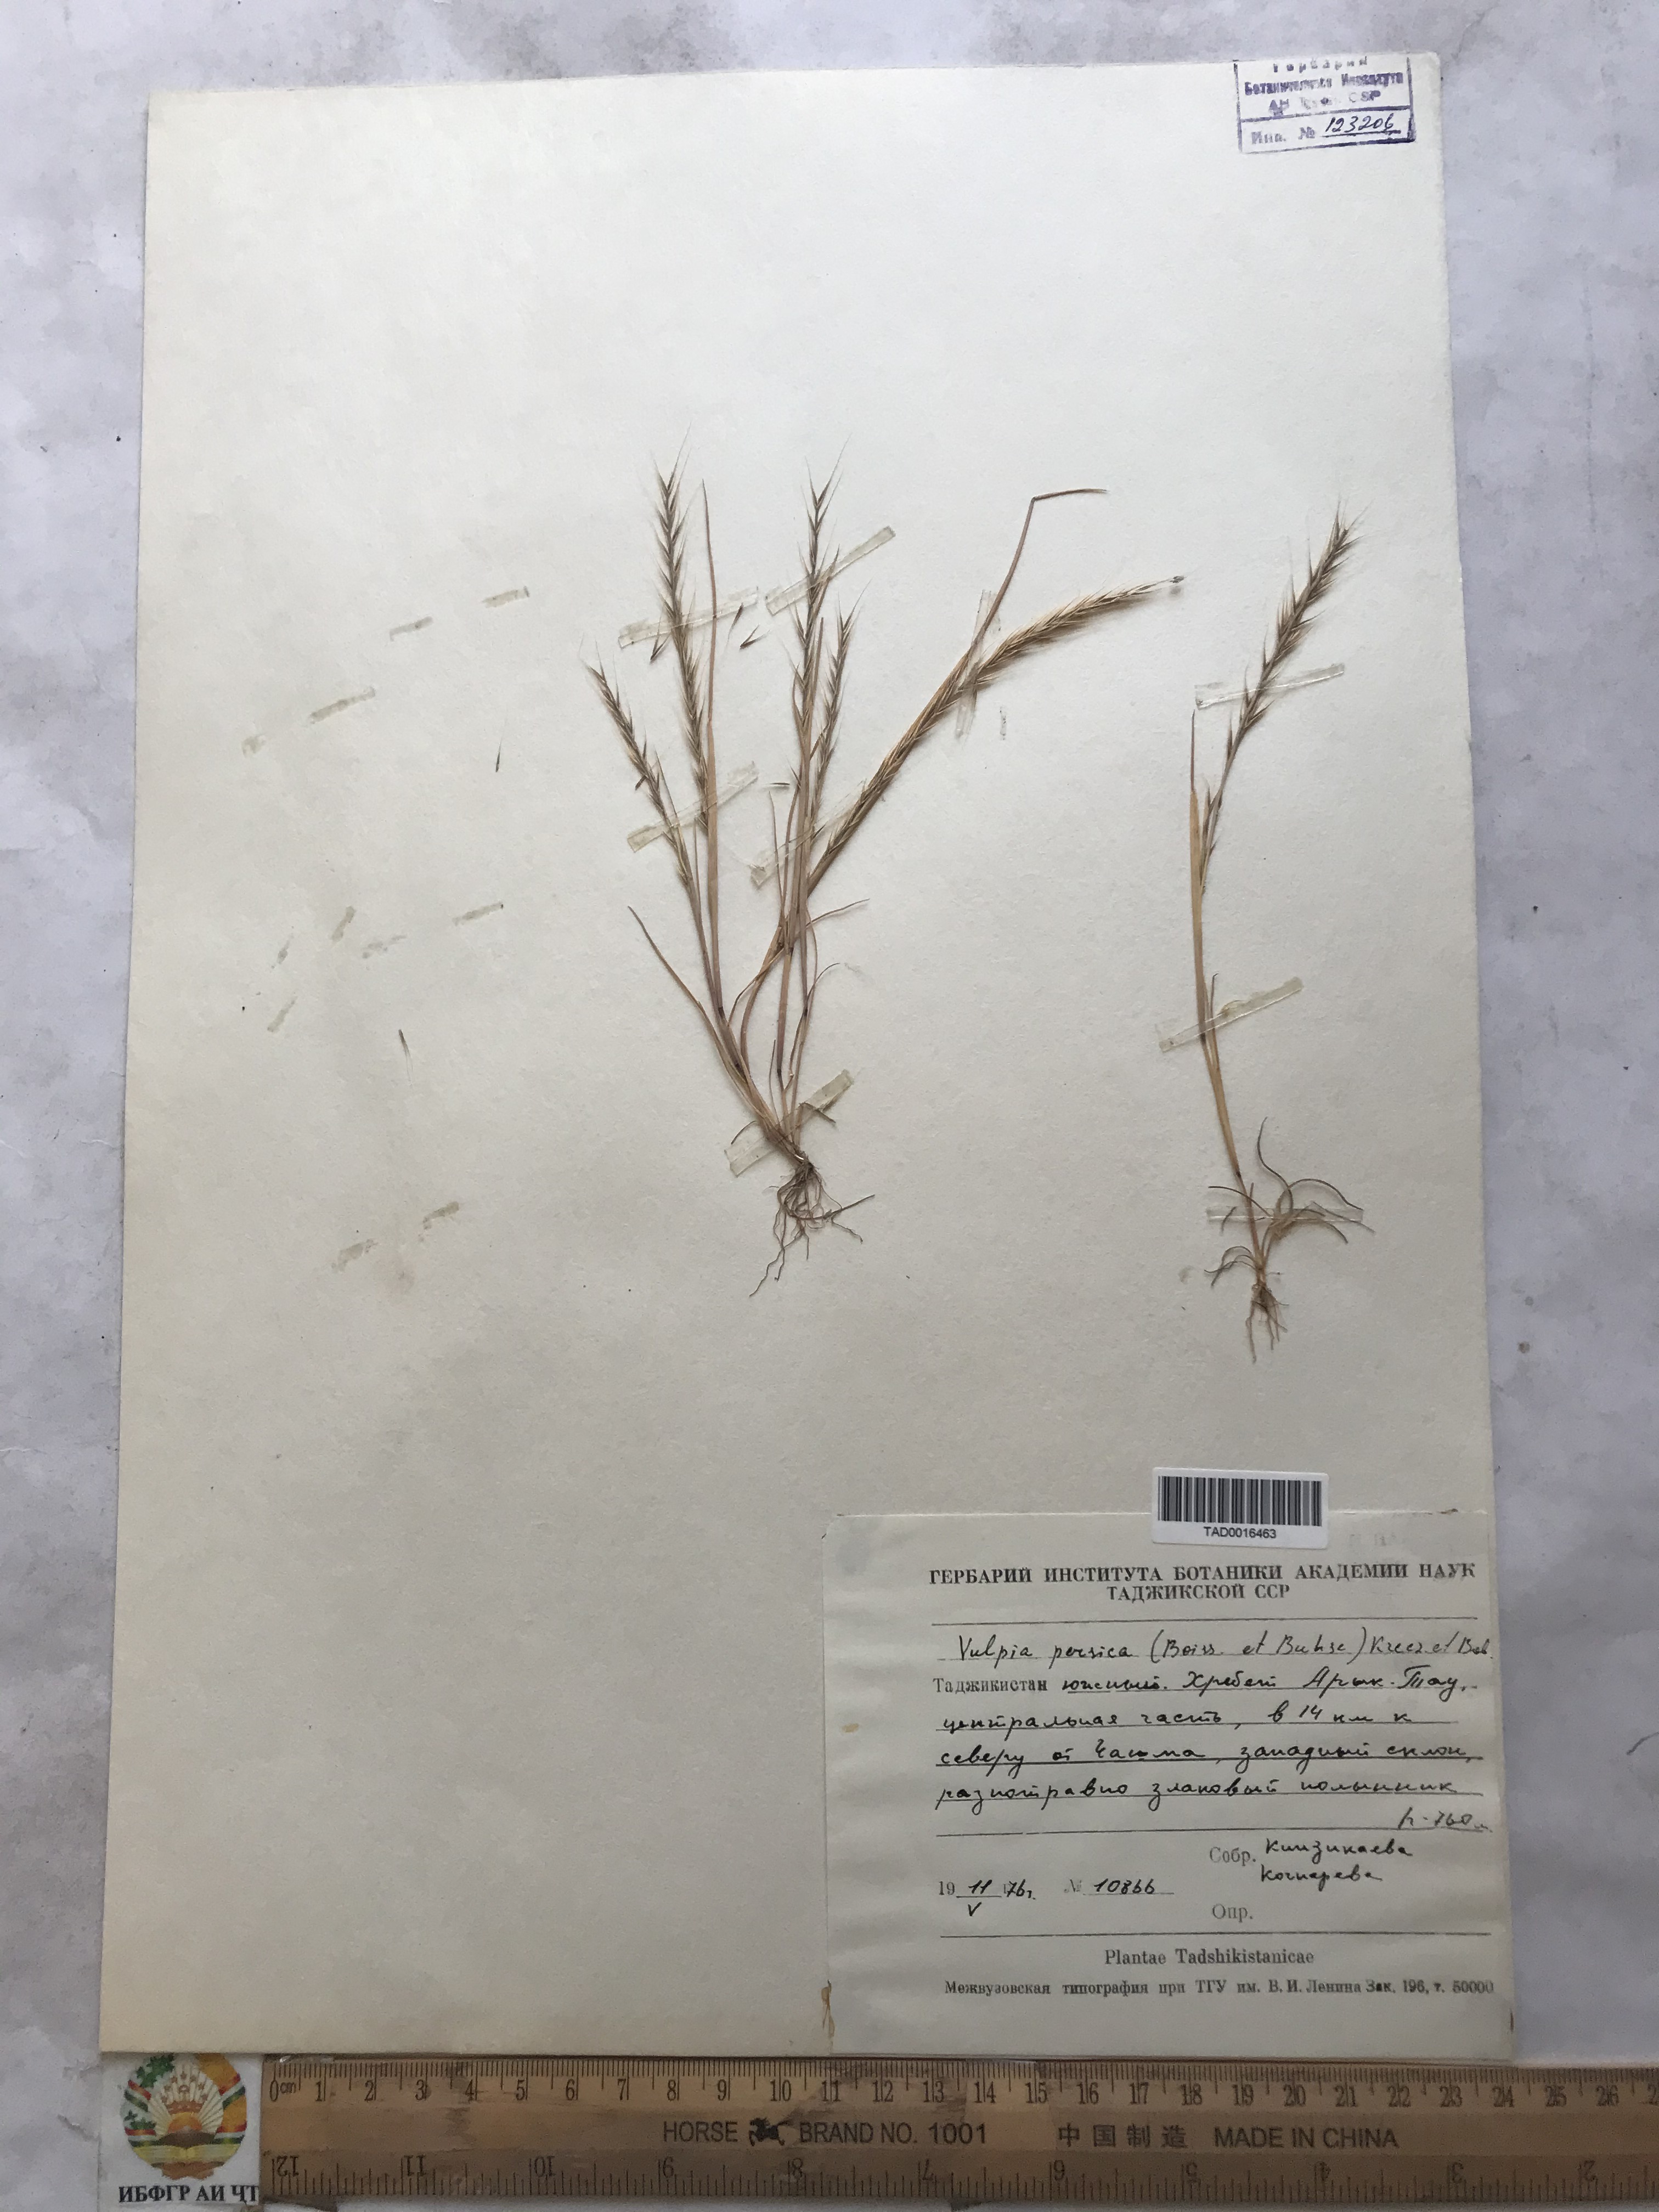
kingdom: Plantae
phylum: Tracheophyta
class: Liliopsida
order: Poales
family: Poaceae
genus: Festuca
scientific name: Festuca Vulpia persica
